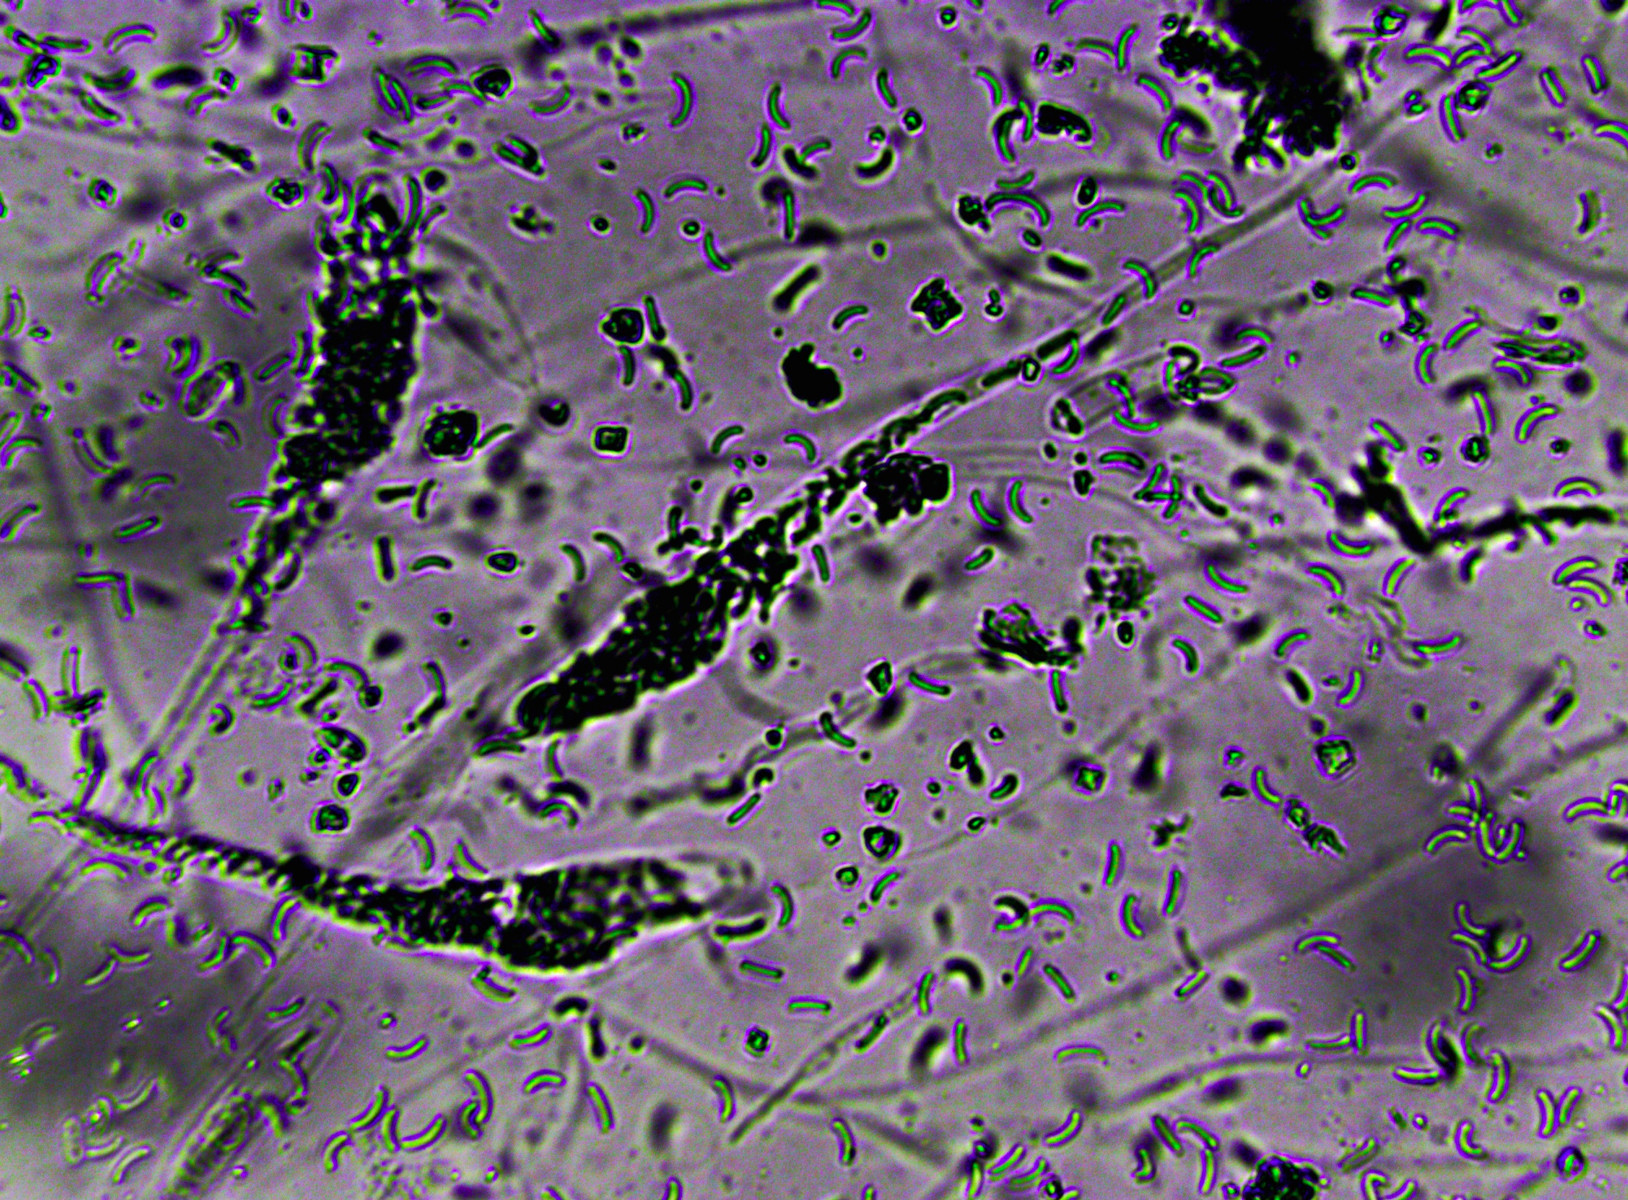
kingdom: Fungi
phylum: Ascomycota
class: Sordariomycetes
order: Xylariales
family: Diatrypaceae
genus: Diatrypella
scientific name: Diatrypella favacea
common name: klemt kulskorpe
